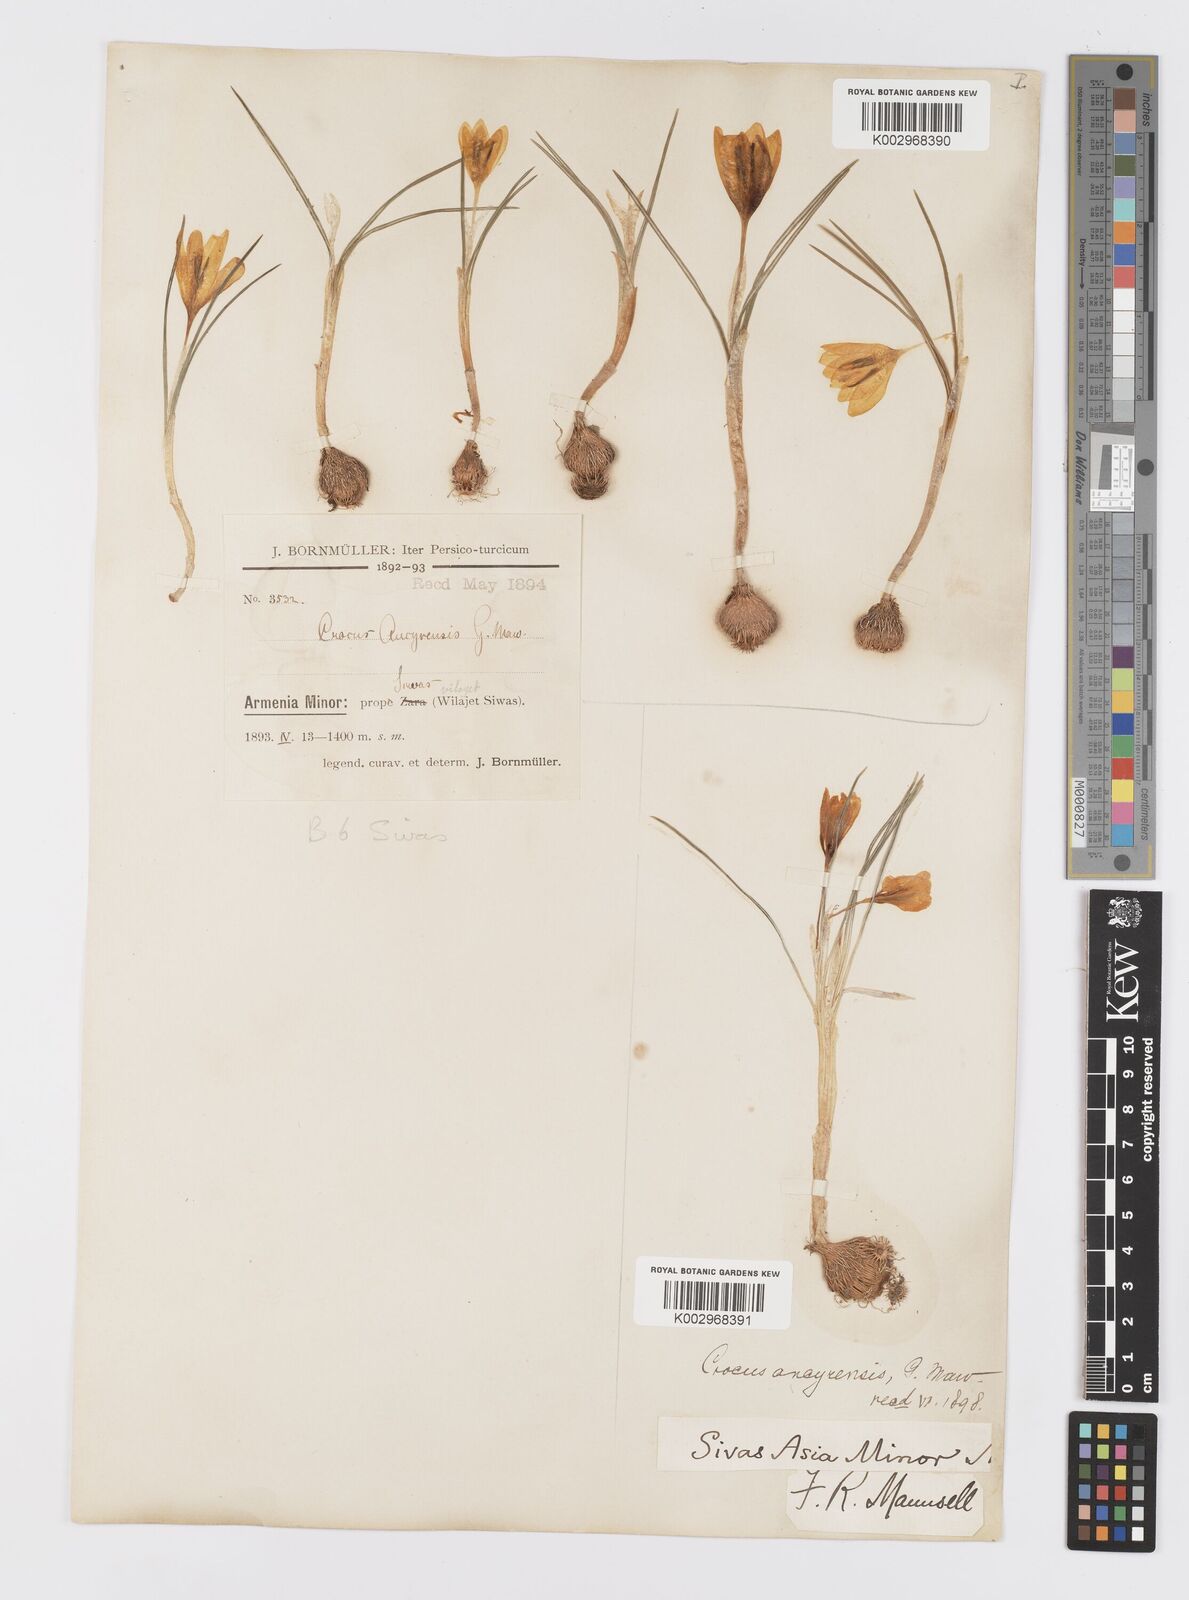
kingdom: Plantae
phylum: Tracheophyta
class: Liliopsida
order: Asparagales
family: Iridaceae
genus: Crocus
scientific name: Crocus ancyrensis
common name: Ankara crocus
